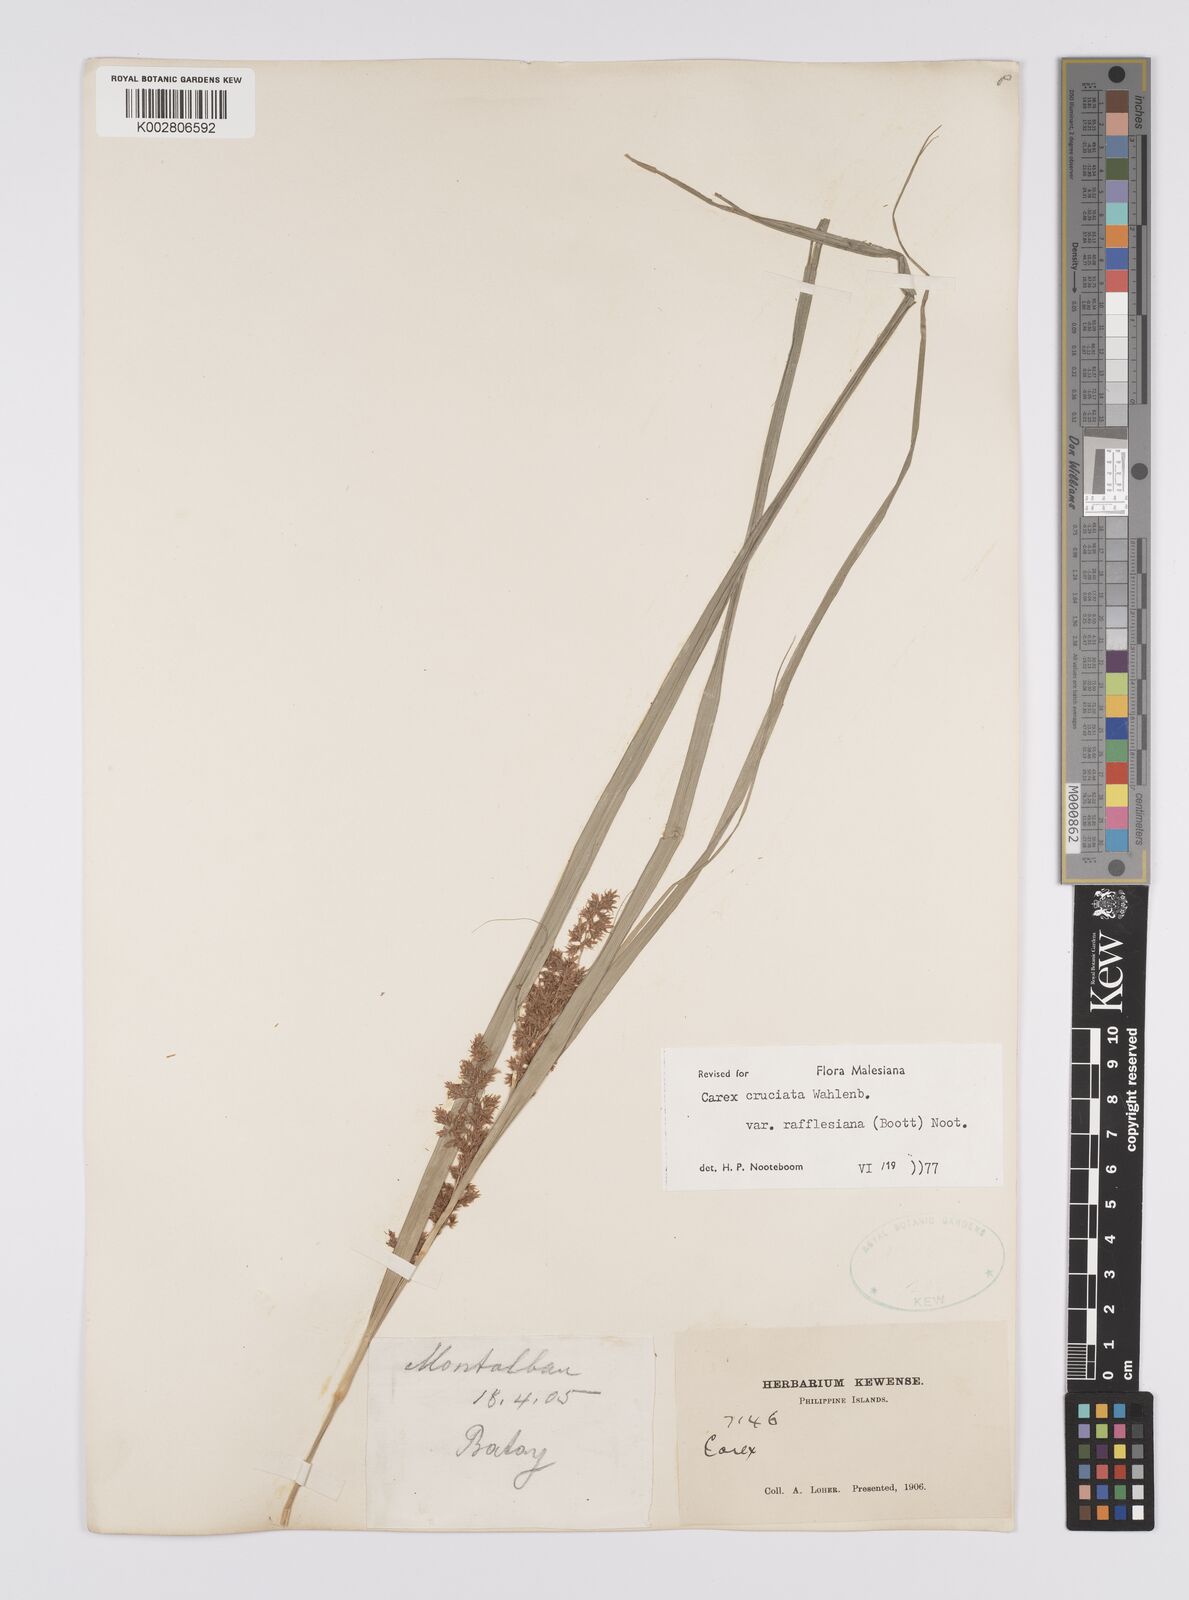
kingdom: Plantae
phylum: Tracheophyta
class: Liliopsida
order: Poales
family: Cyperaceae
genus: Carex
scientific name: Carex rafflesiana
